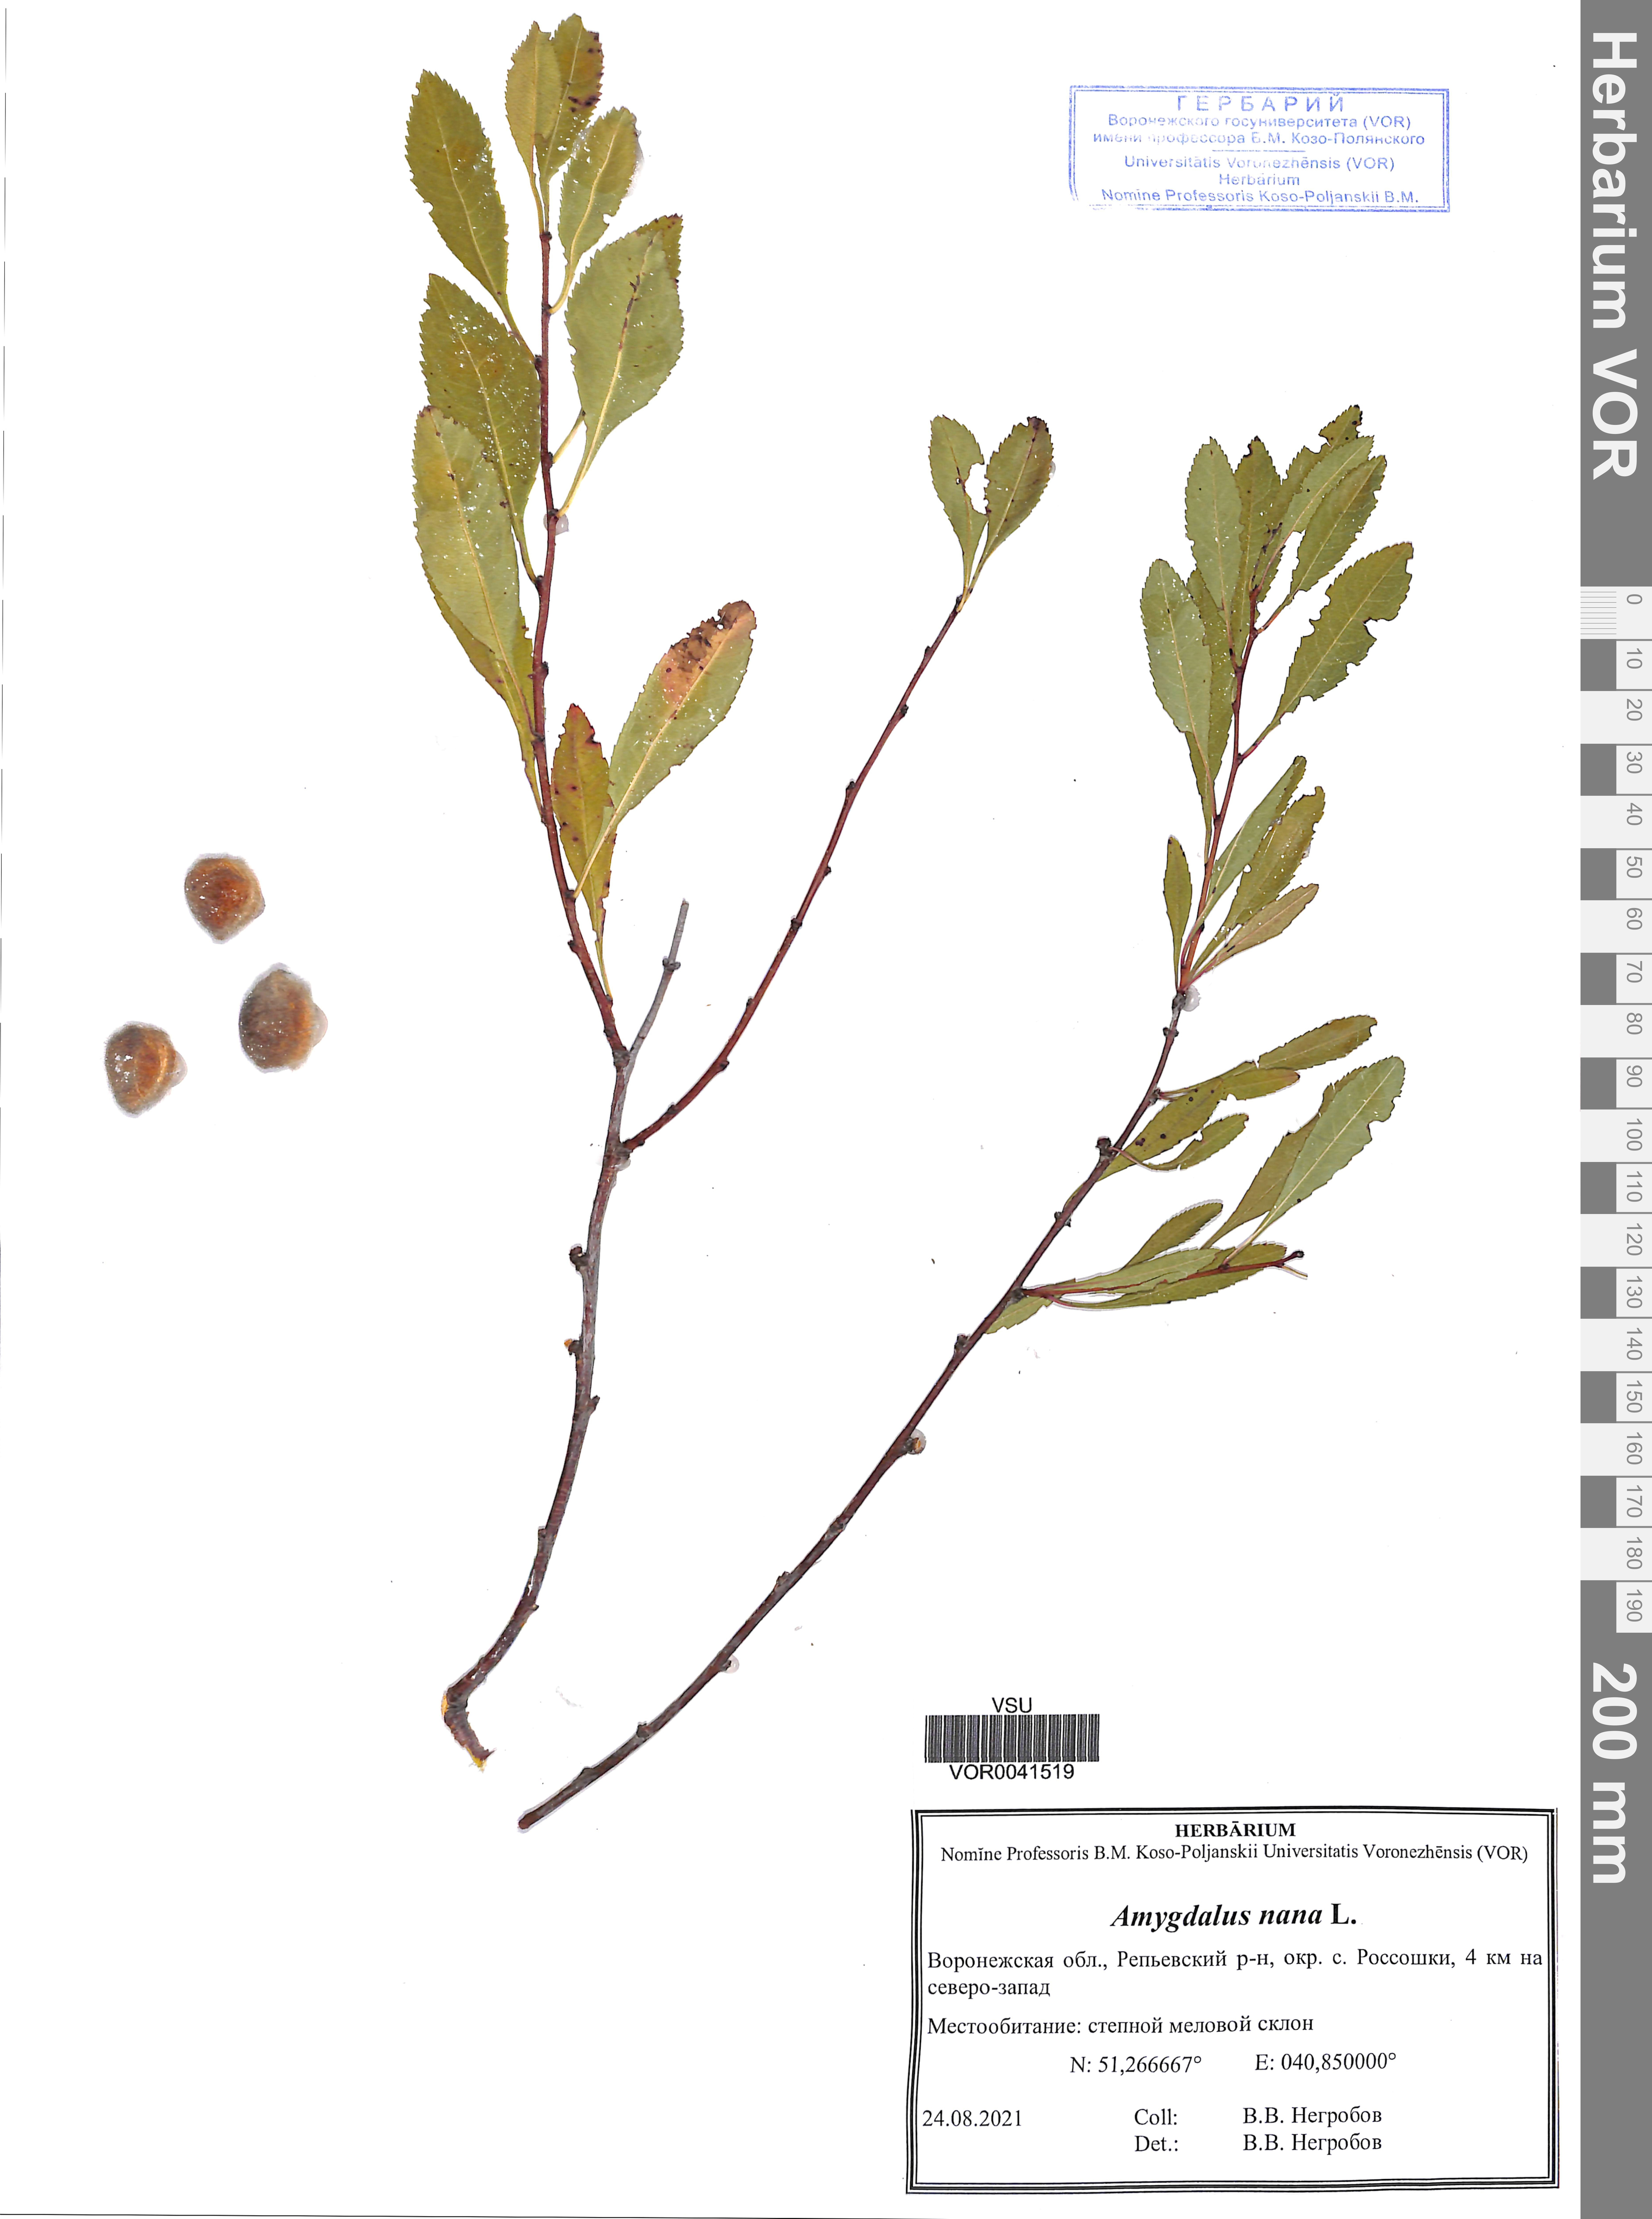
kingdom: Plantae
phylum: Tracheophyta
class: Magnoliopsida
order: Rosales
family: Rosaceae
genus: Prunus
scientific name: Prunus tenella
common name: Dwarf russian almond
